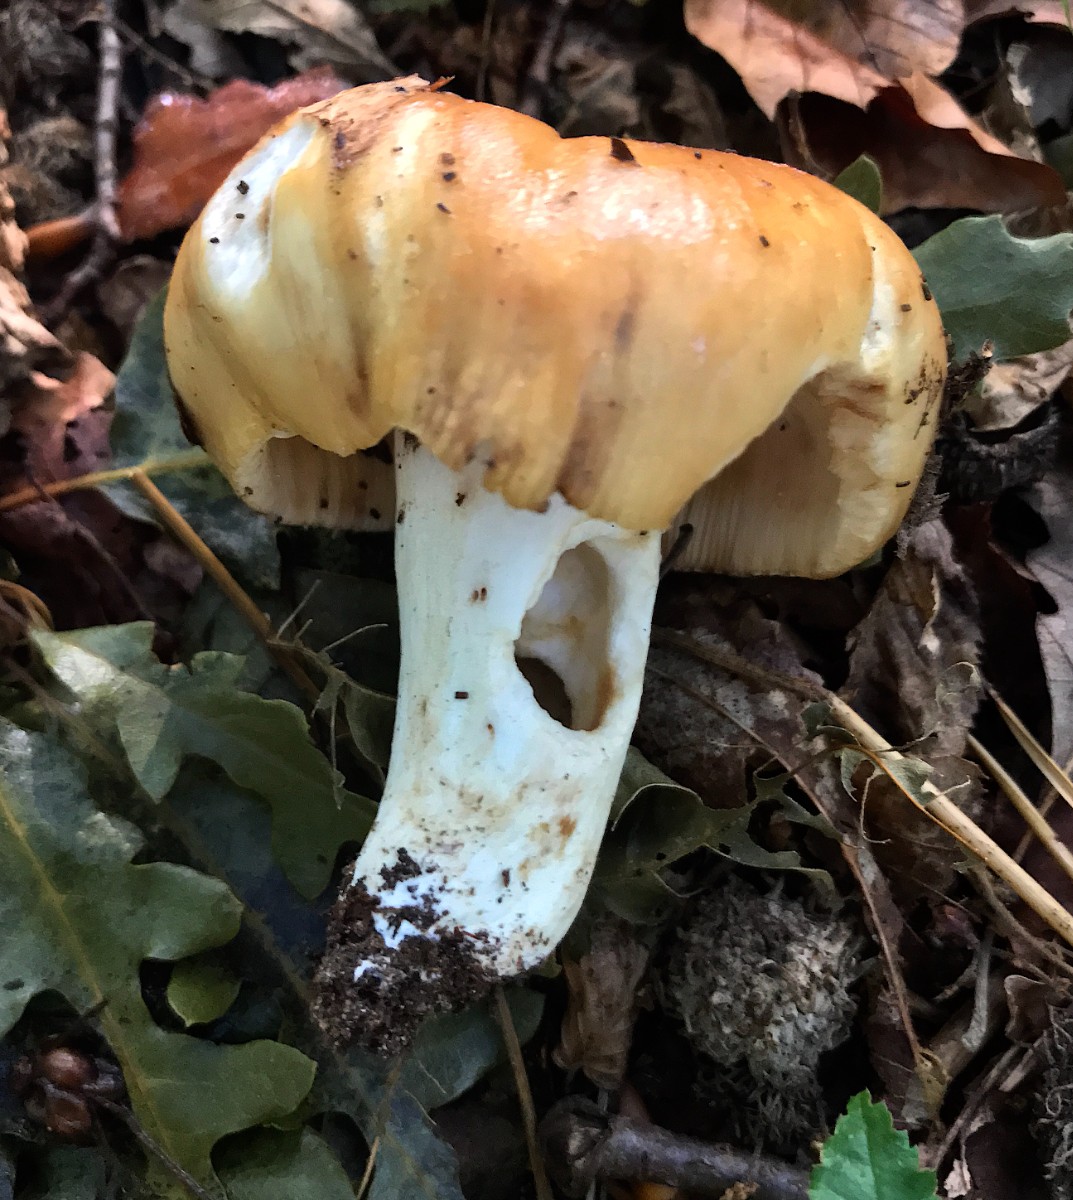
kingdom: Fungi
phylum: Basidiomycota
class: Agaricomycetes
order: Russulales
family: Russulaceae
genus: Russula
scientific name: Russula foetens
